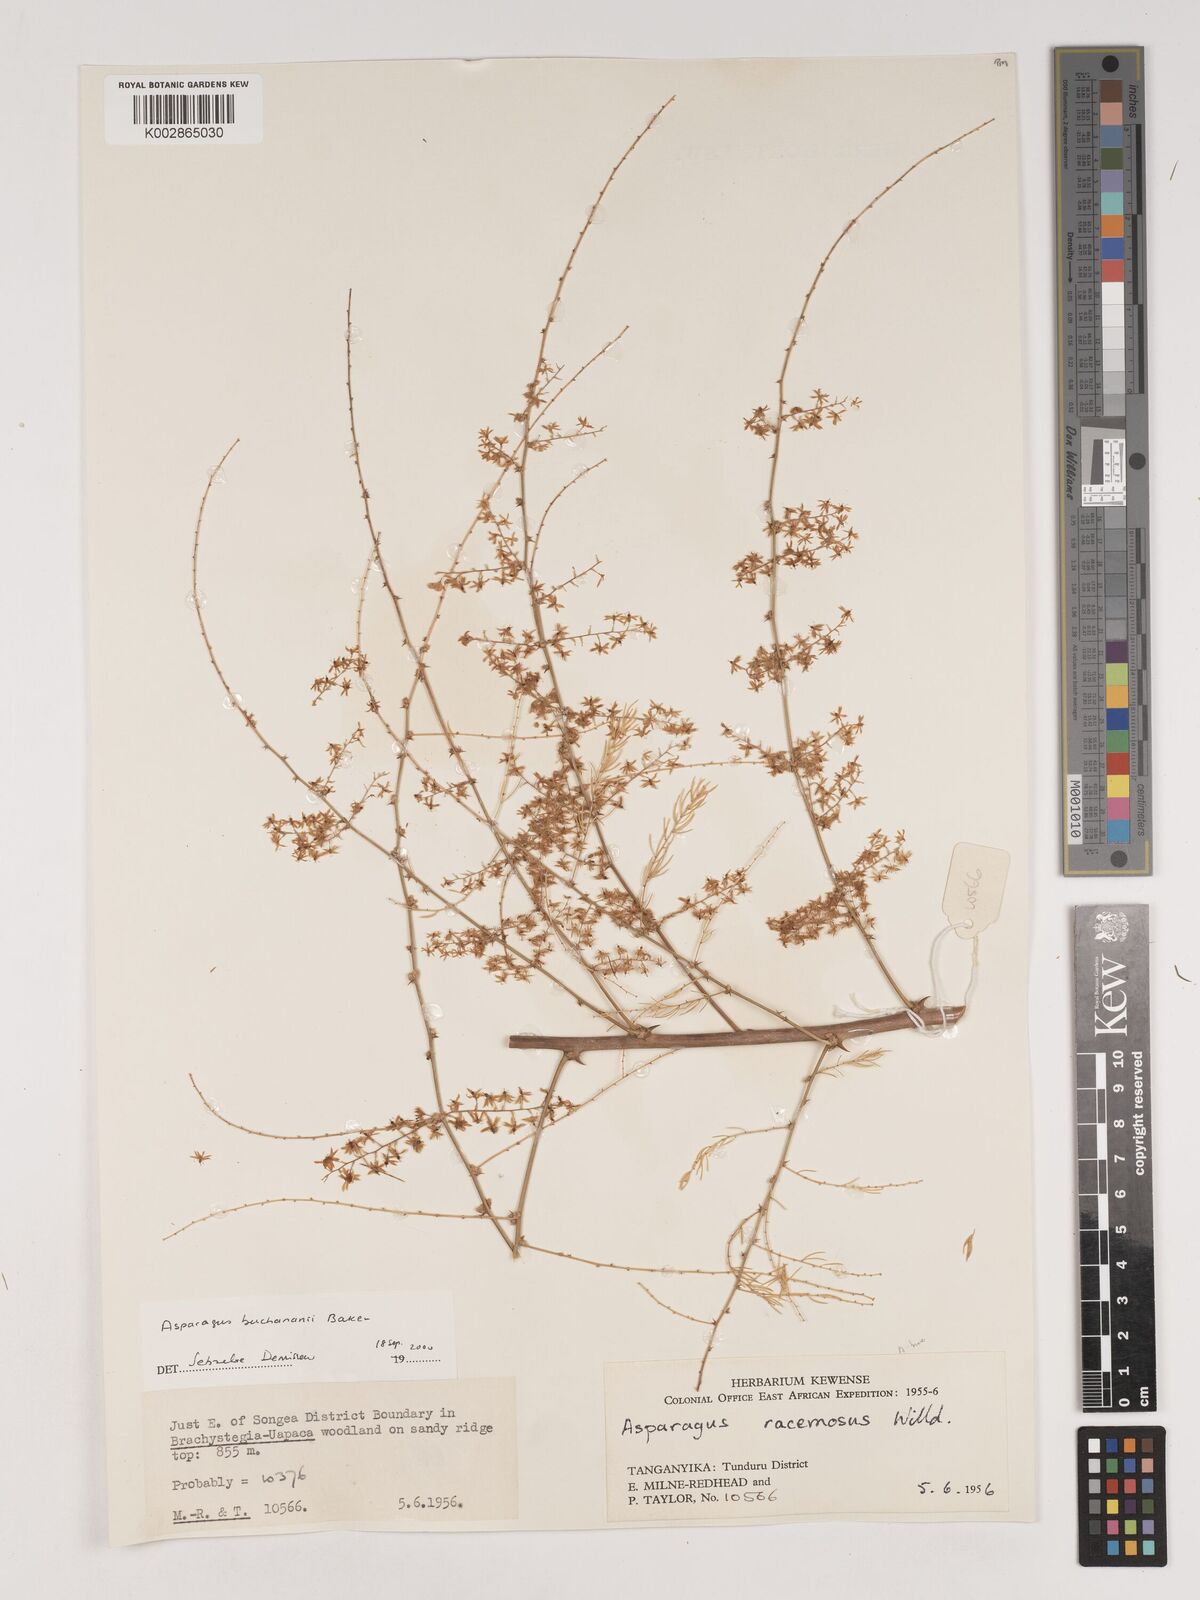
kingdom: Plantae
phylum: Tracheophyta
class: Liliopsida
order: Asparagales
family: Asparagaceae
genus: Asparagus
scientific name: Asparagus buchananii
